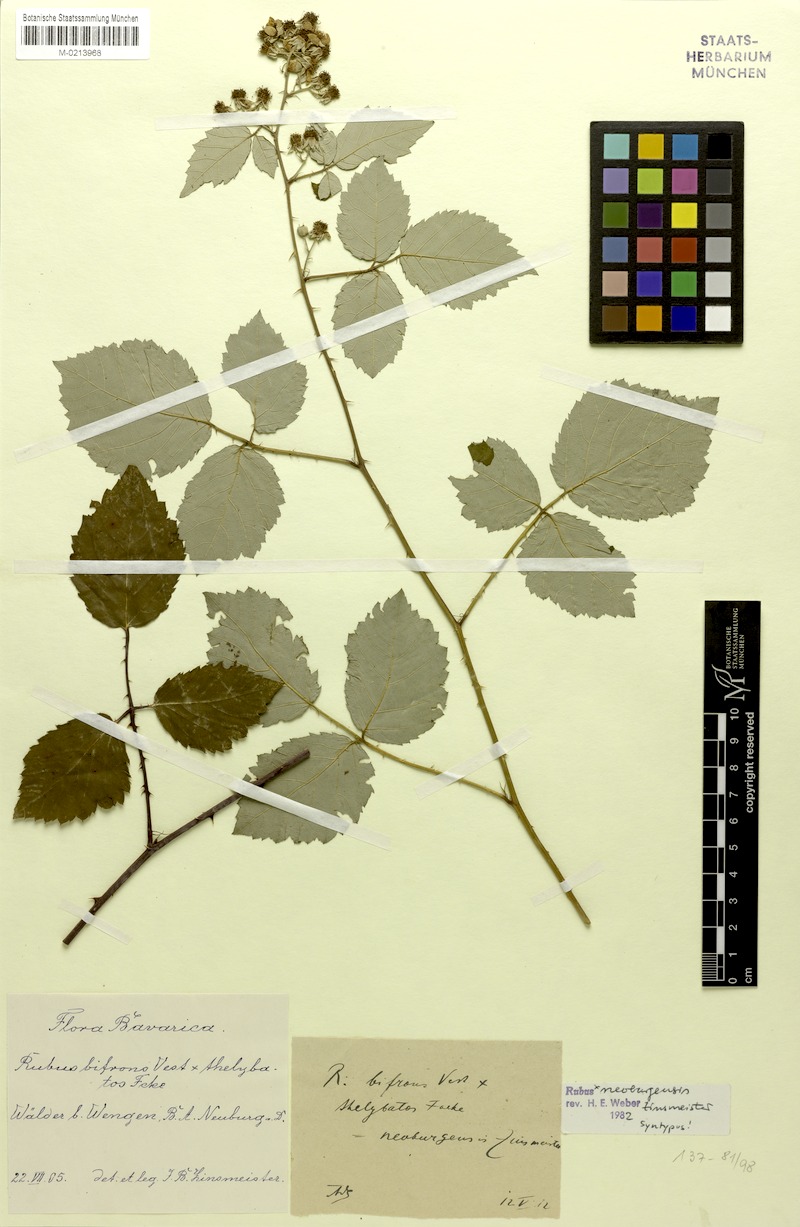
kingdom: Plantae
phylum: Tracheophyta
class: Magnoliopsida
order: Rosales
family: Rosaceae
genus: Rubus
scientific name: Rubus neoburgensis
